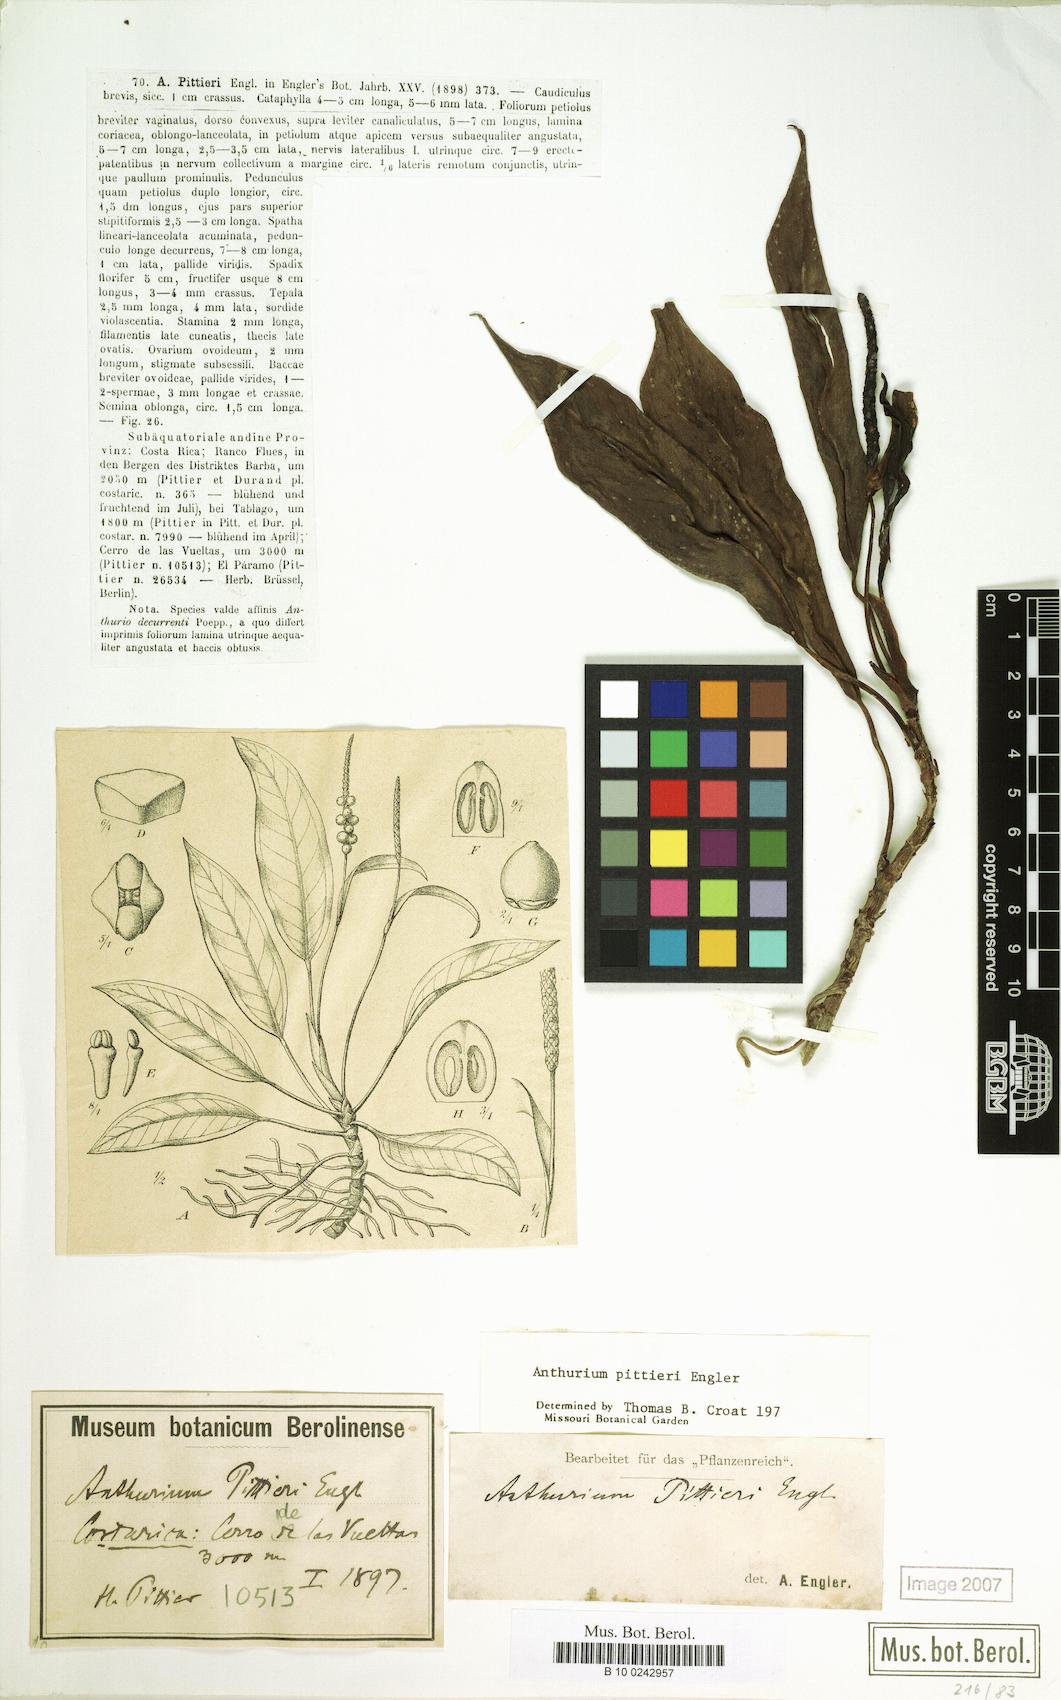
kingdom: Plantae
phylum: Tracheophyta
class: Liliopsida
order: Alismatales
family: Araceae
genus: Anthurium
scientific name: Anthurium pittieri
